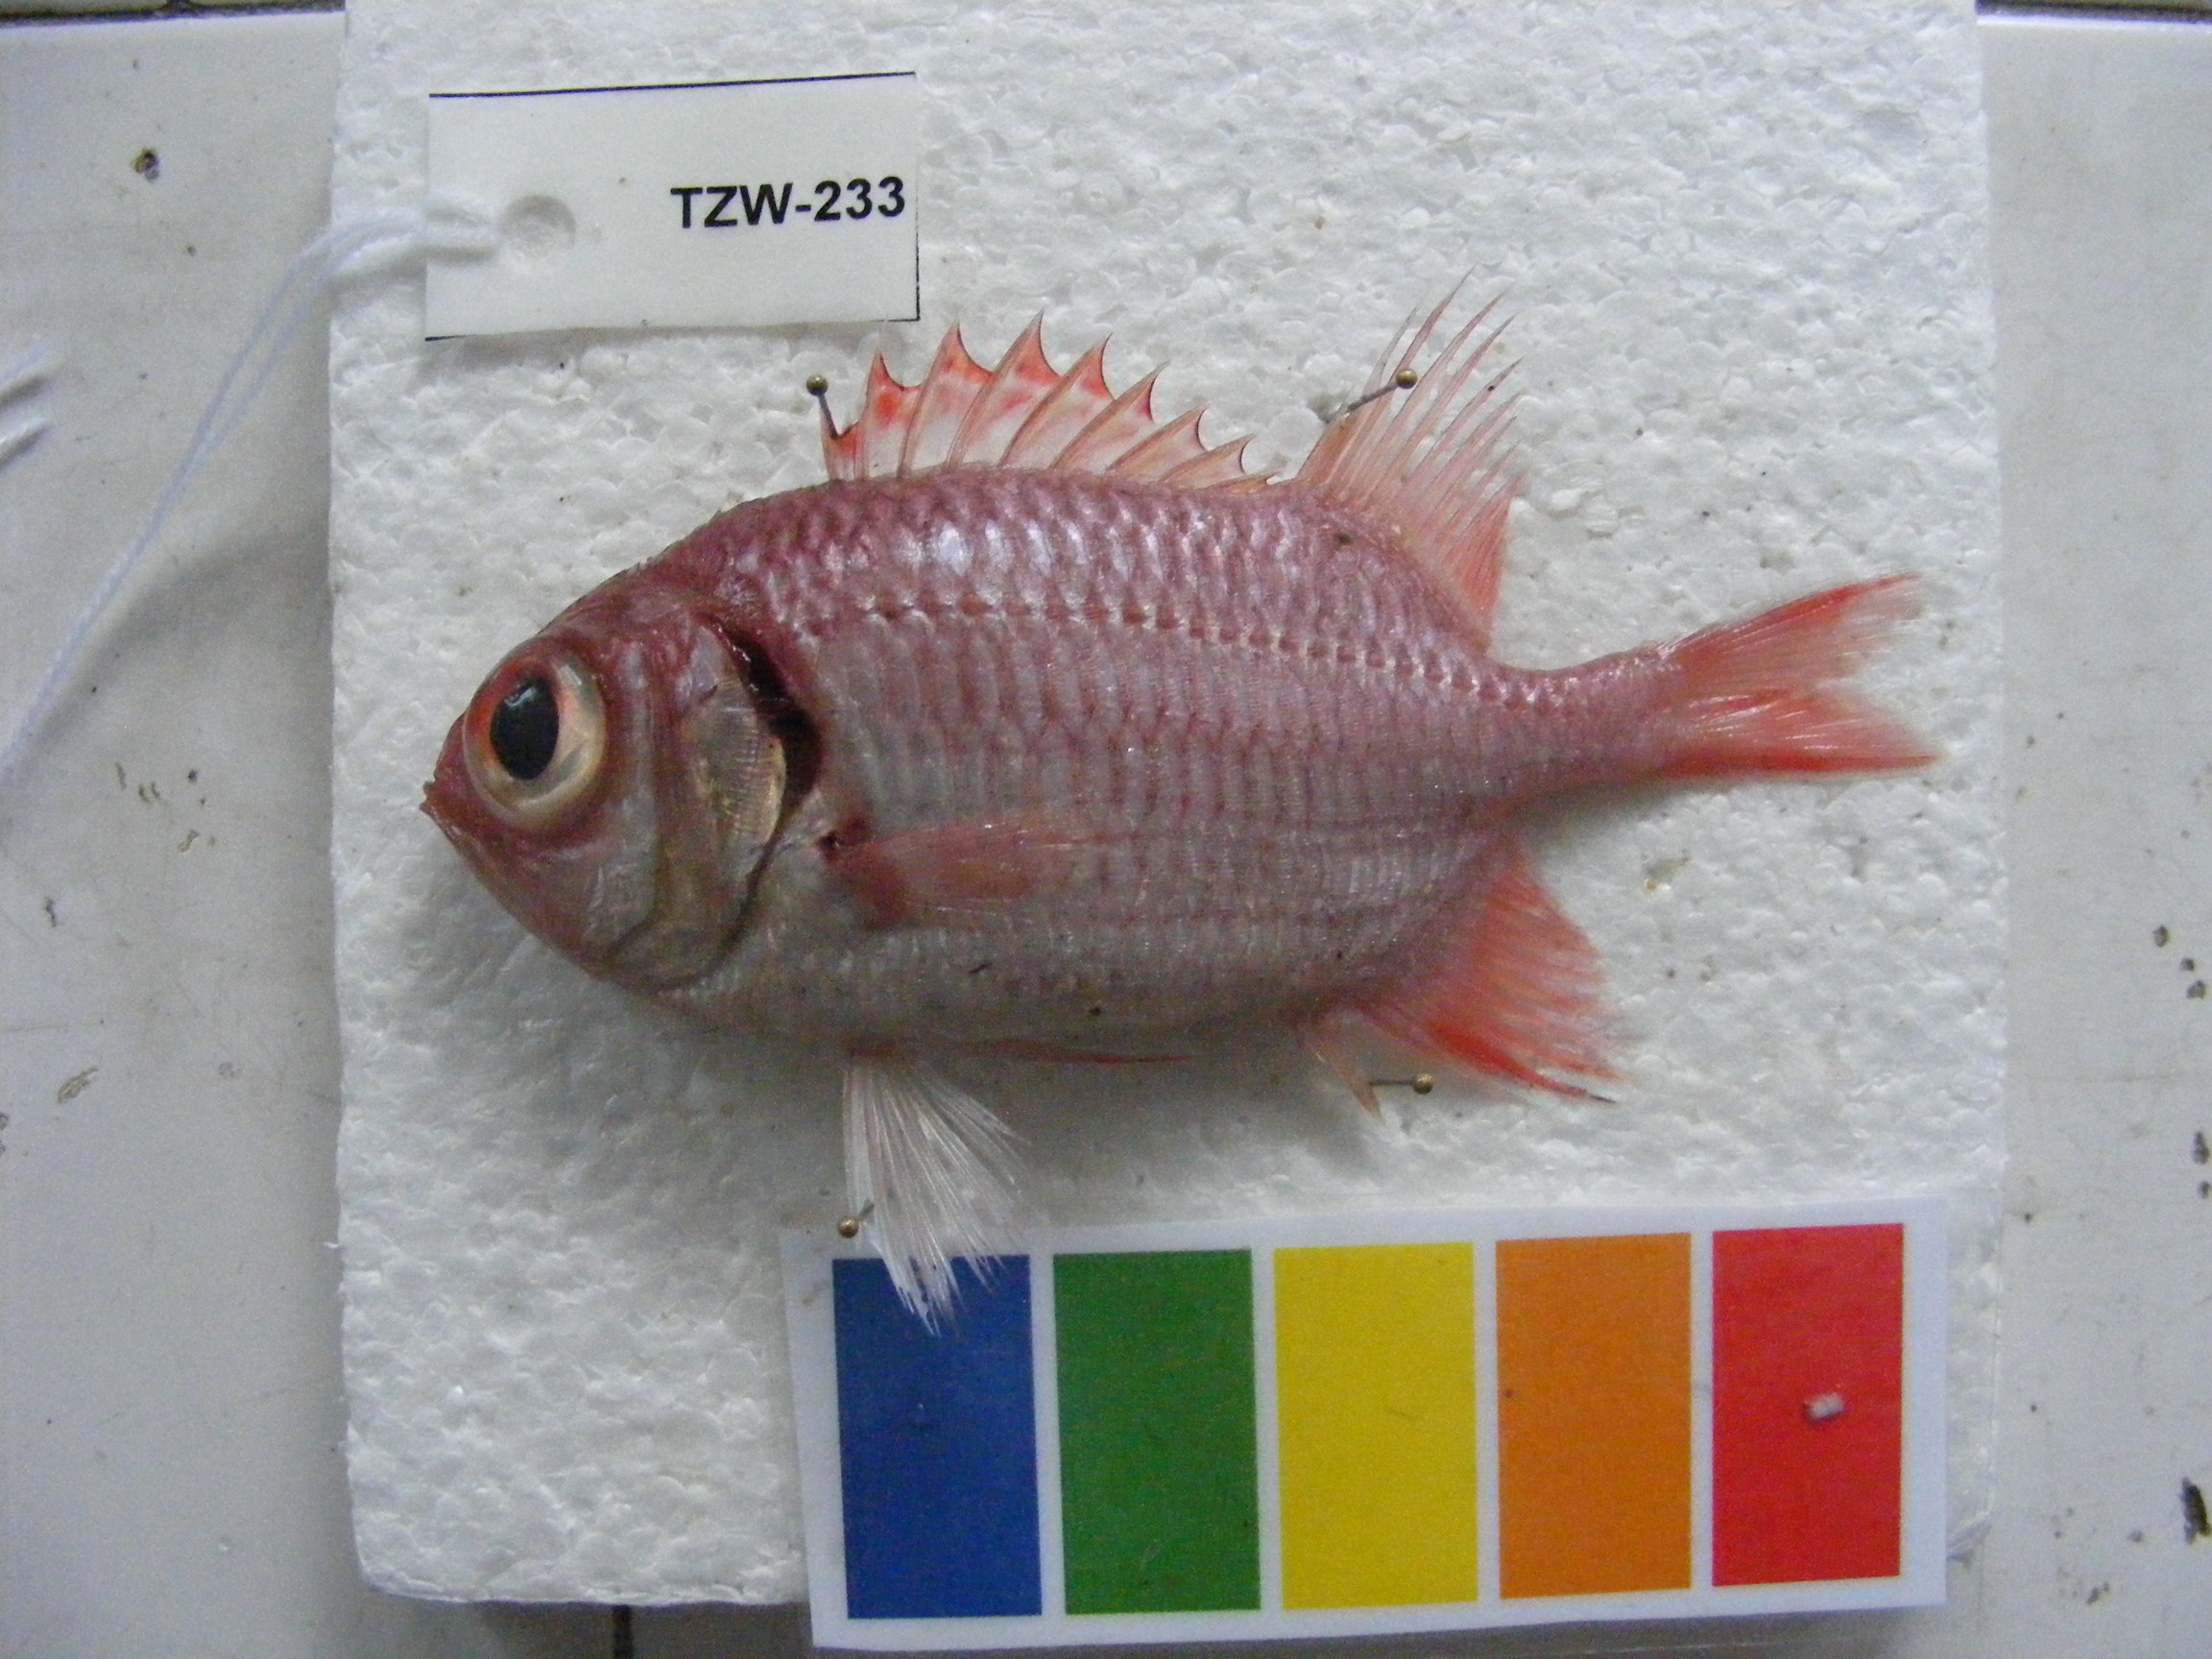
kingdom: Animalia
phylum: Chordata
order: Beryciformes
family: Holocentridae
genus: Myripristis
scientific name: Myripristis hexagona
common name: Blacktip soldierfish
